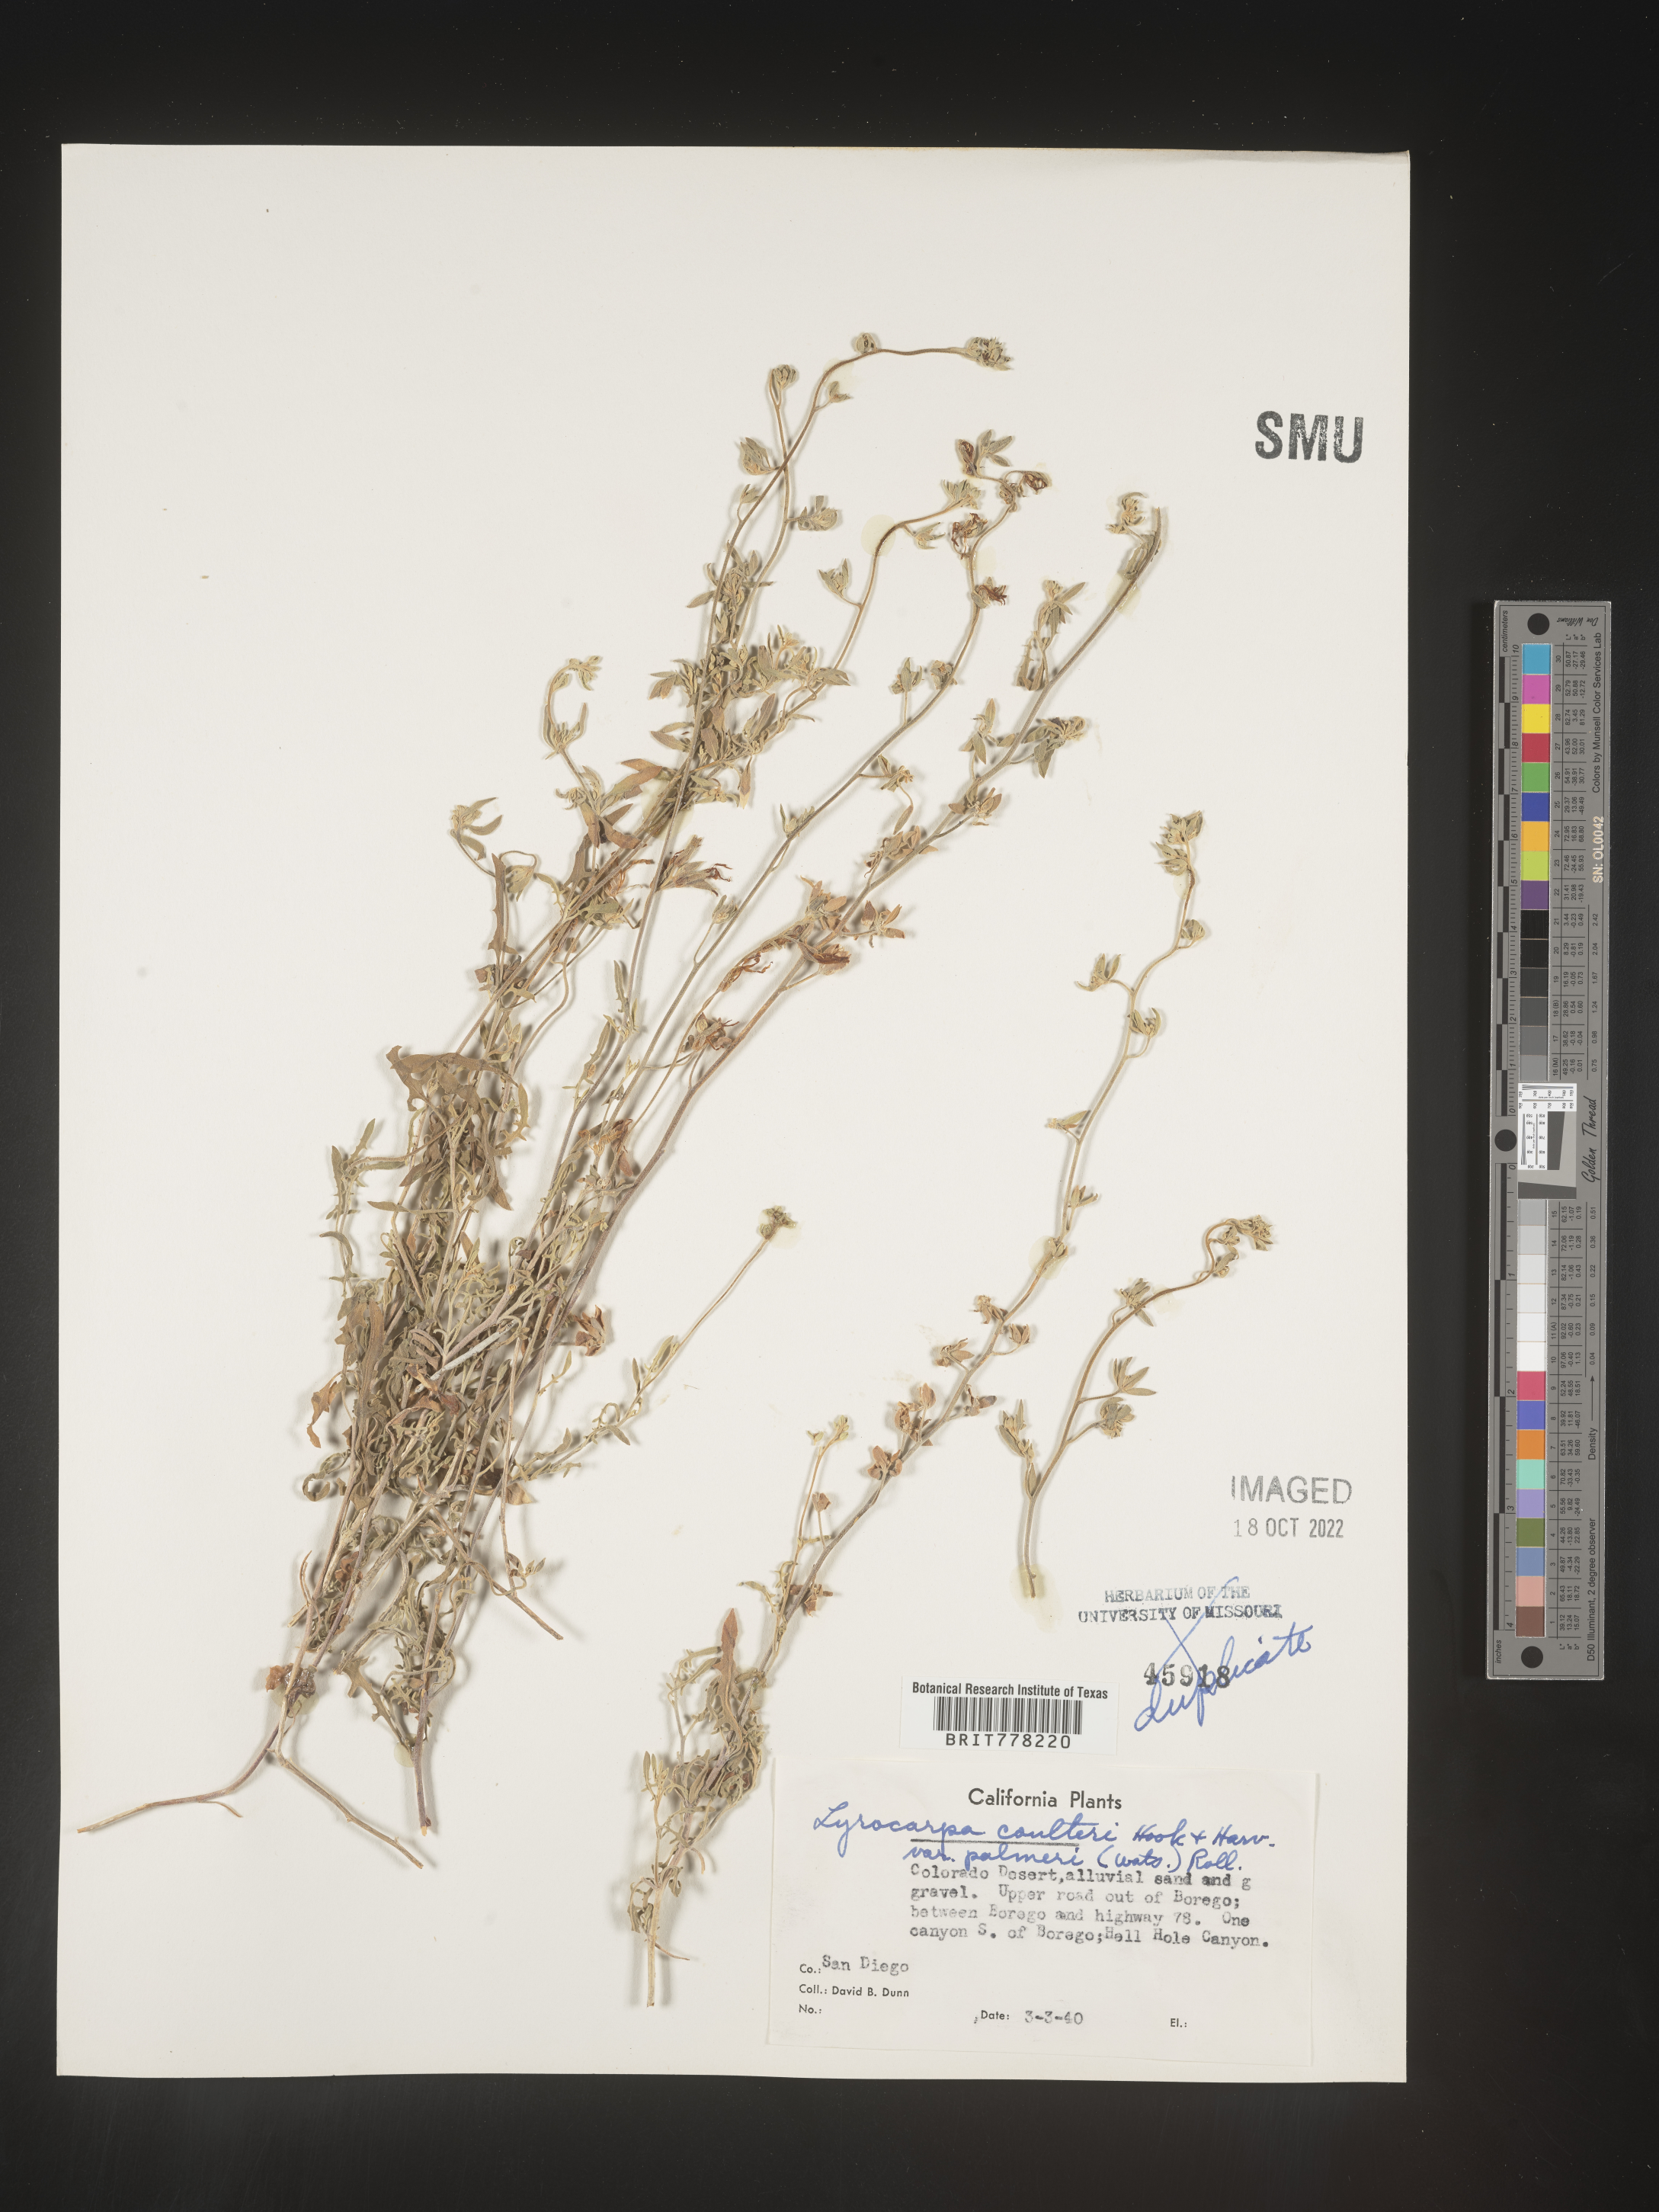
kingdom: Plantae
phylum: Tracheophyta
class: Magnoliopsida
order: Brassicales
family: Brassicaceae
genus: Lyrocarpa
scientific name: Lyrocarpa
